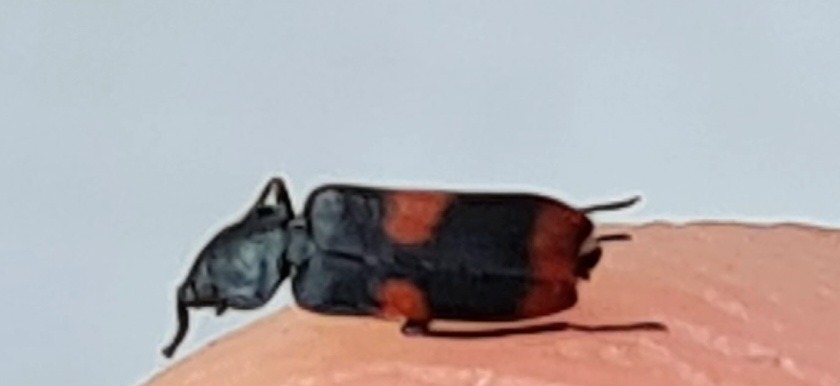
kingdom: Animalia
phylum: Arthropoda
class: Insecta
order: Coleoptera
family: Melyridae
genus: Anthocomus
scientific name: Anthocomus fasciatus
